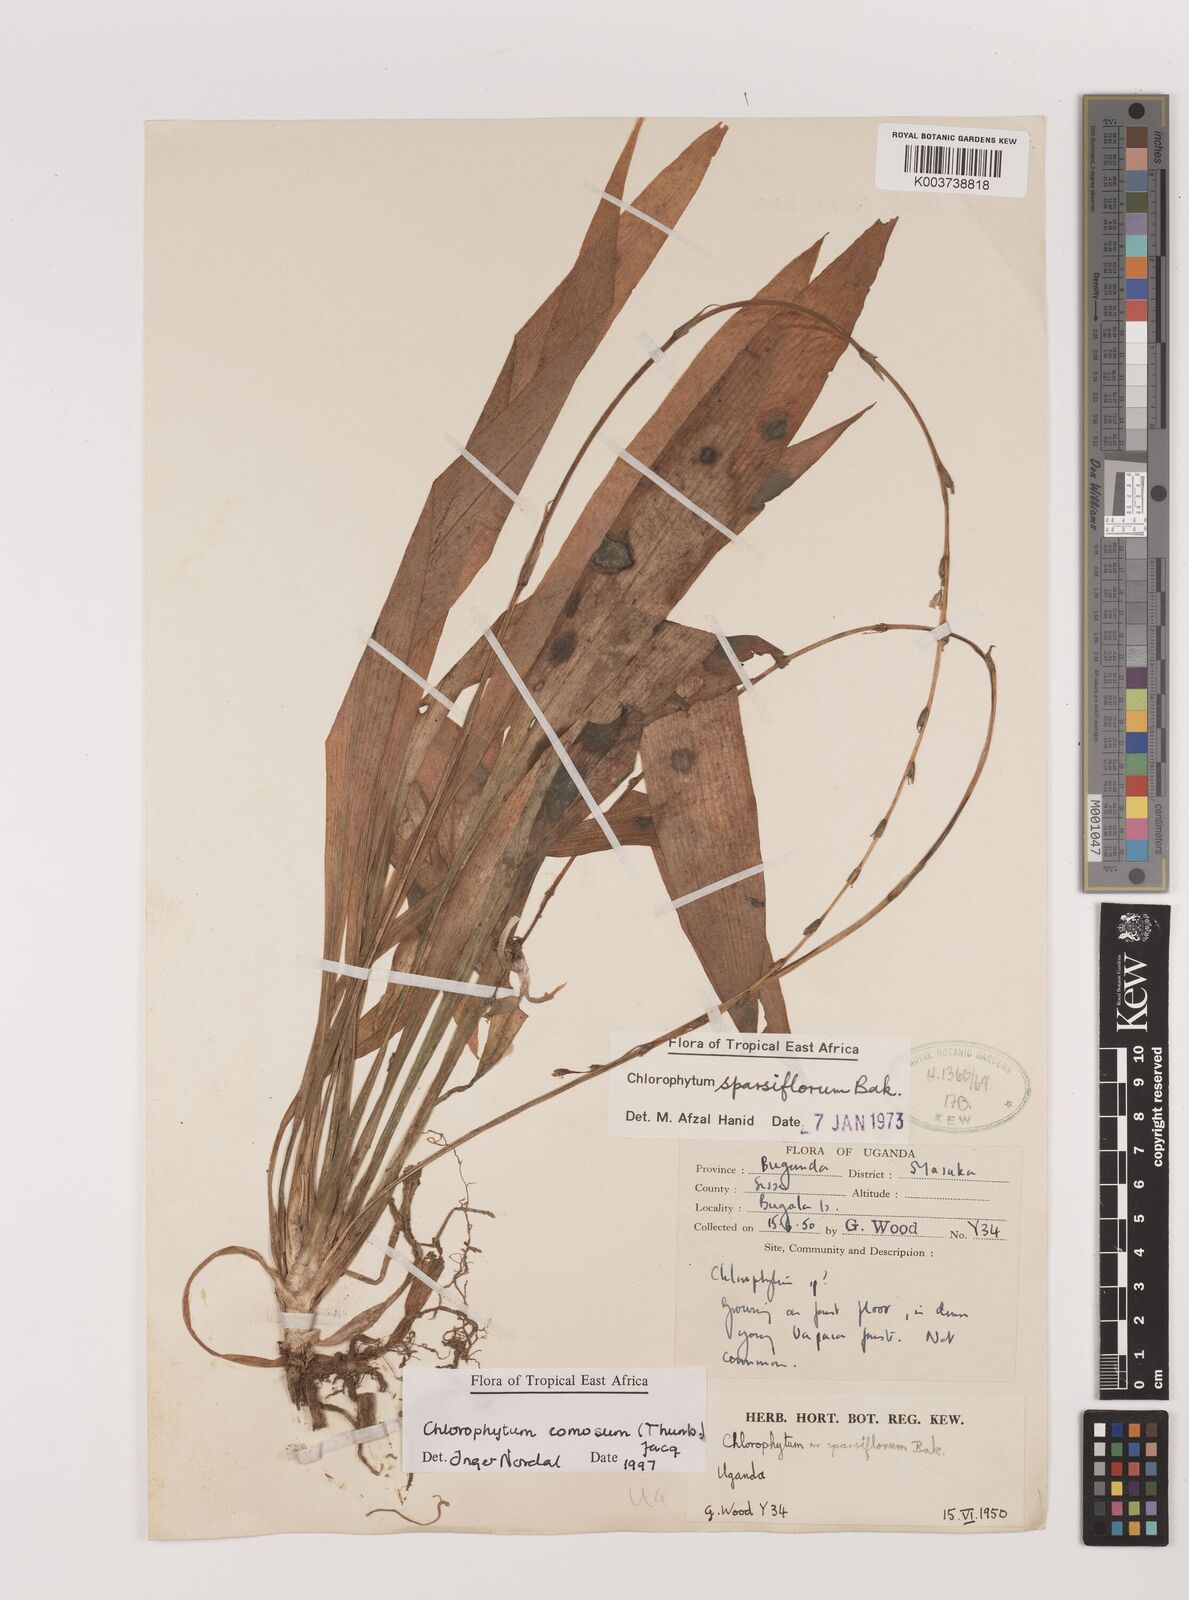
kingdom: Plantae
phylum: Tracheophyta
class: Liliopsida
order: Asparagales
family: Asparagaceae
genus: Chlorophytum
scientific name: Chlorophytum comosum
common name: Spider plant
